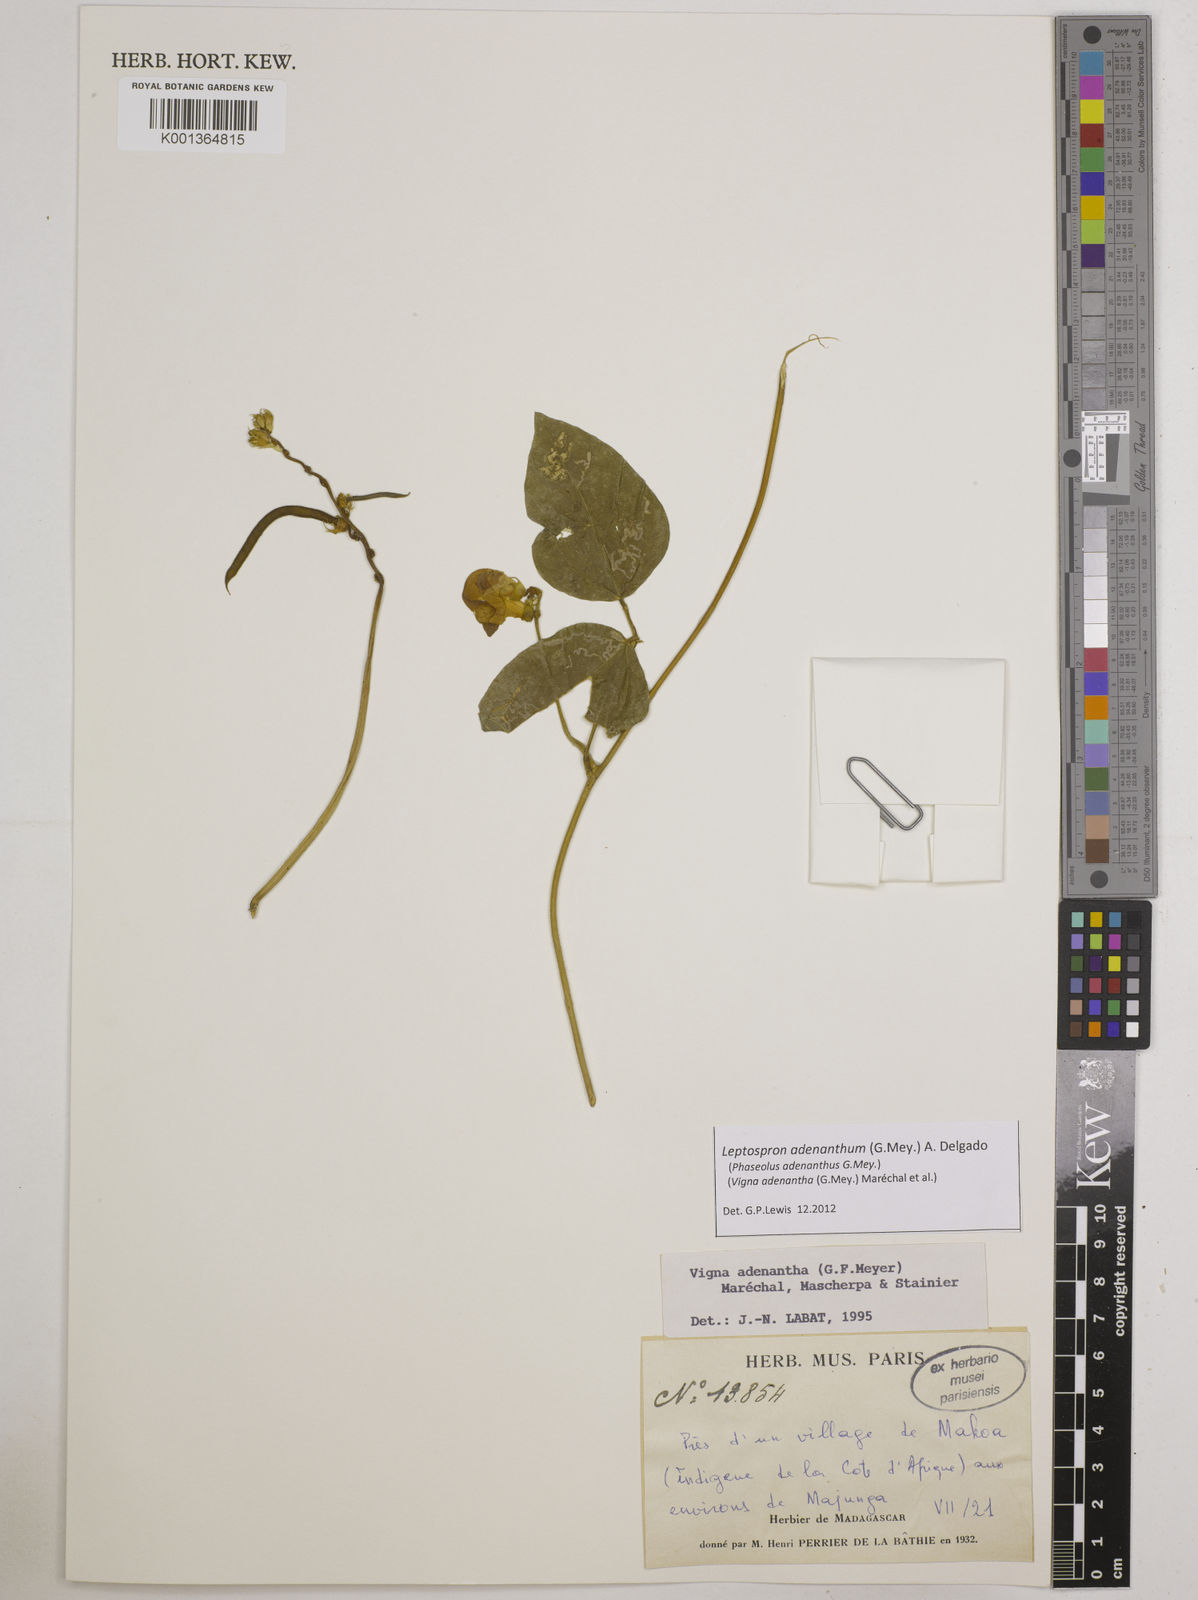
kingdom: Plantae
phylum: Tracheophyta
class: Magnoliopsida
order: Fabales
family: Fabaceae
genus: Leptospron
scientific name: Leptospron adenanthum
